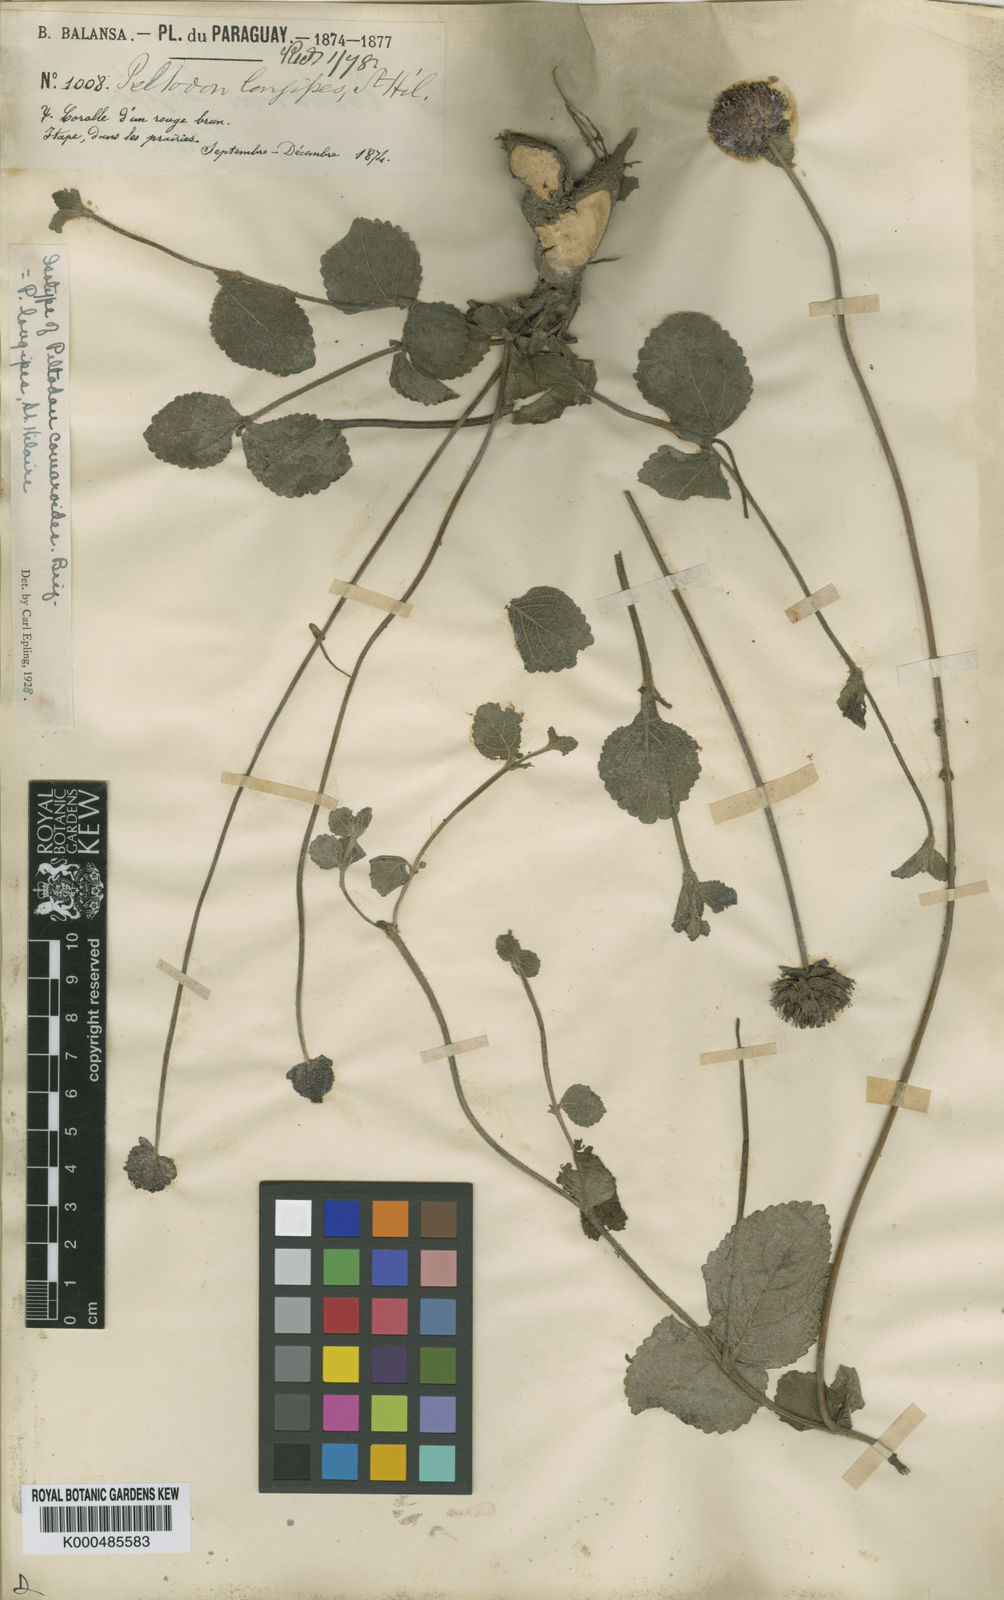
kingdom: Plantae
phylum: Tracheophyta
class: Magnoliopsida
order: Lamiales
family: Lamiaceae
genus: Hyptis
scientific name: Hyptis comaroides
